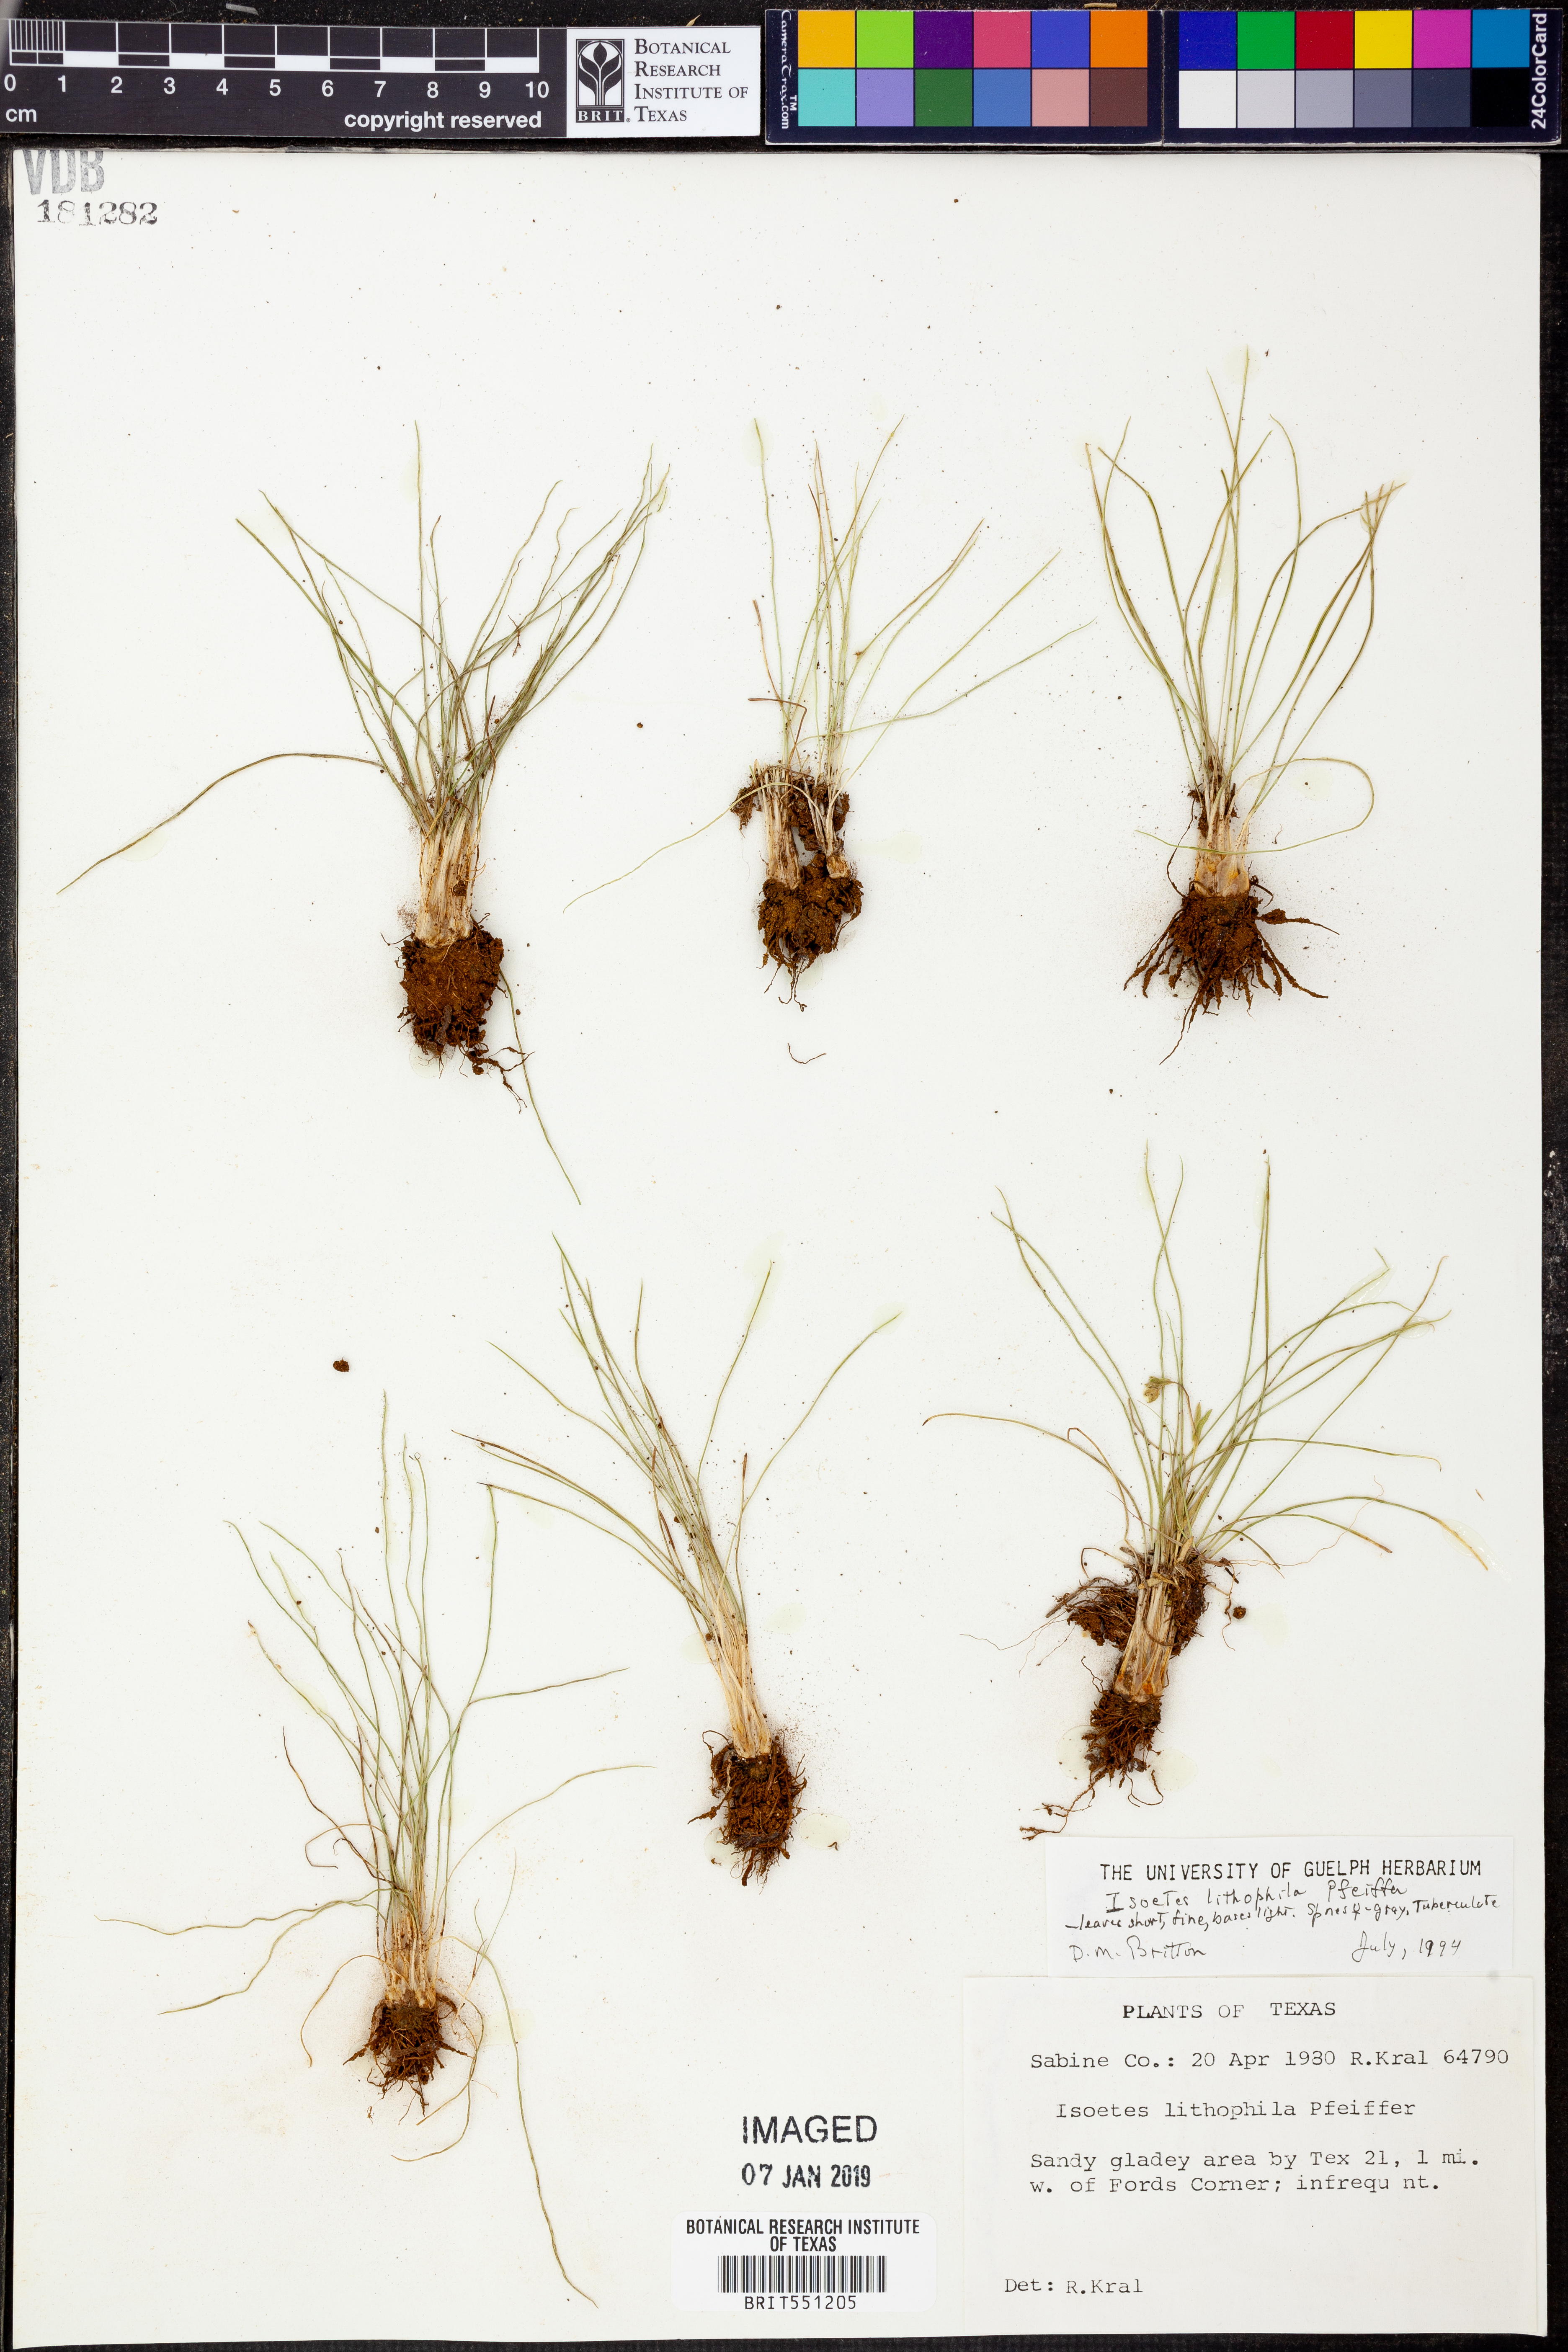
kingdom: Plantae
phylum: Tracheophyta
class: Lycopodiopsida
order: Isoetales
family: Isoetaceae
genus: Isoetes
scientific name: Isoetes lithophila
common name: Rock quillwort
